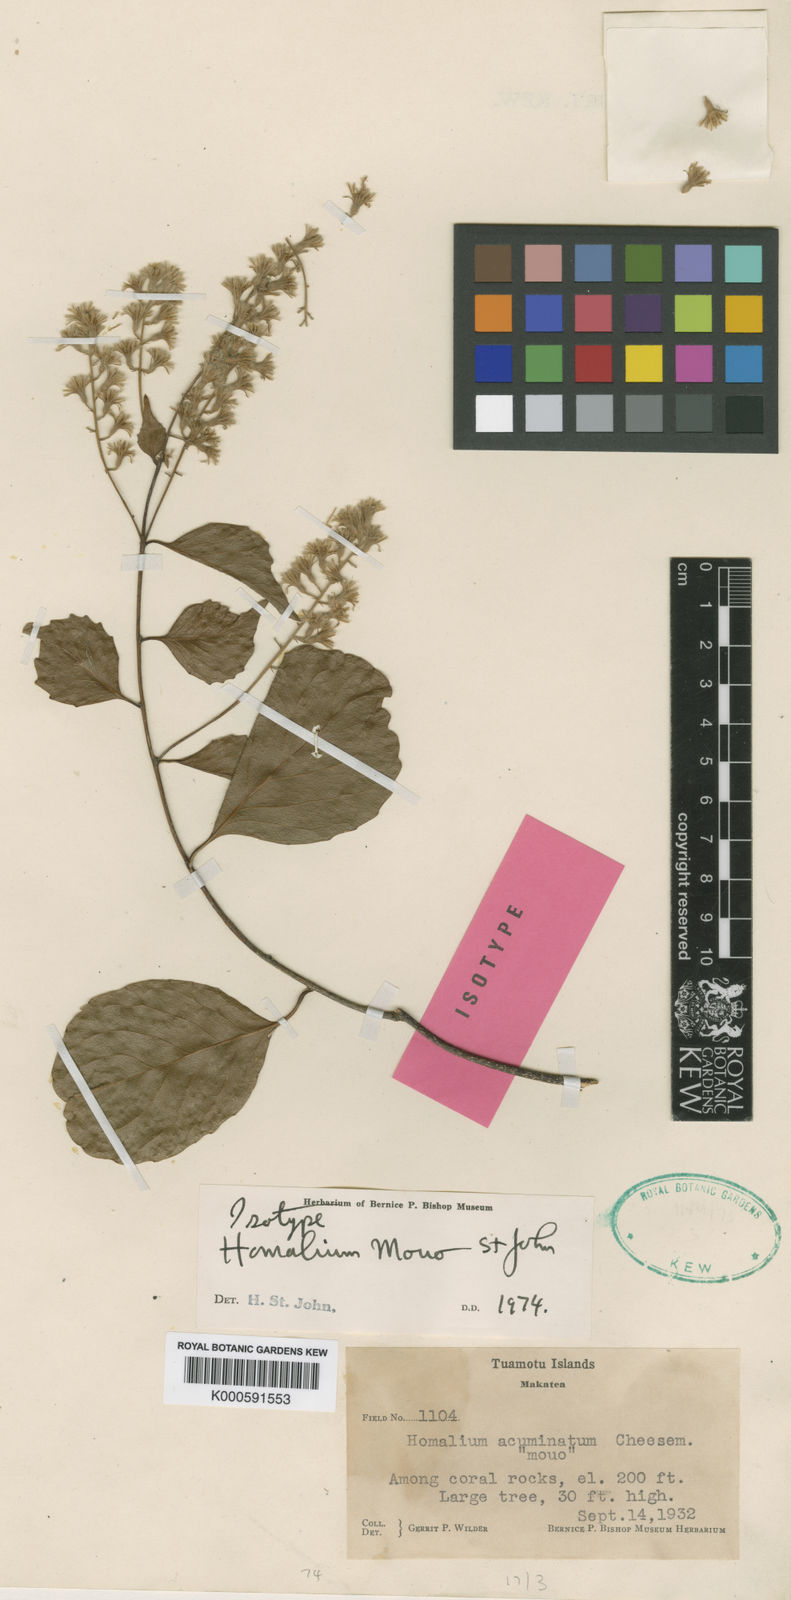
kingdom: Plantae
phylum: Tracheophyta
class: Magnoliopsida
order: Malpighiales
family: Salicaceae
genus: Homalium
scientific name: Homalium mouo
